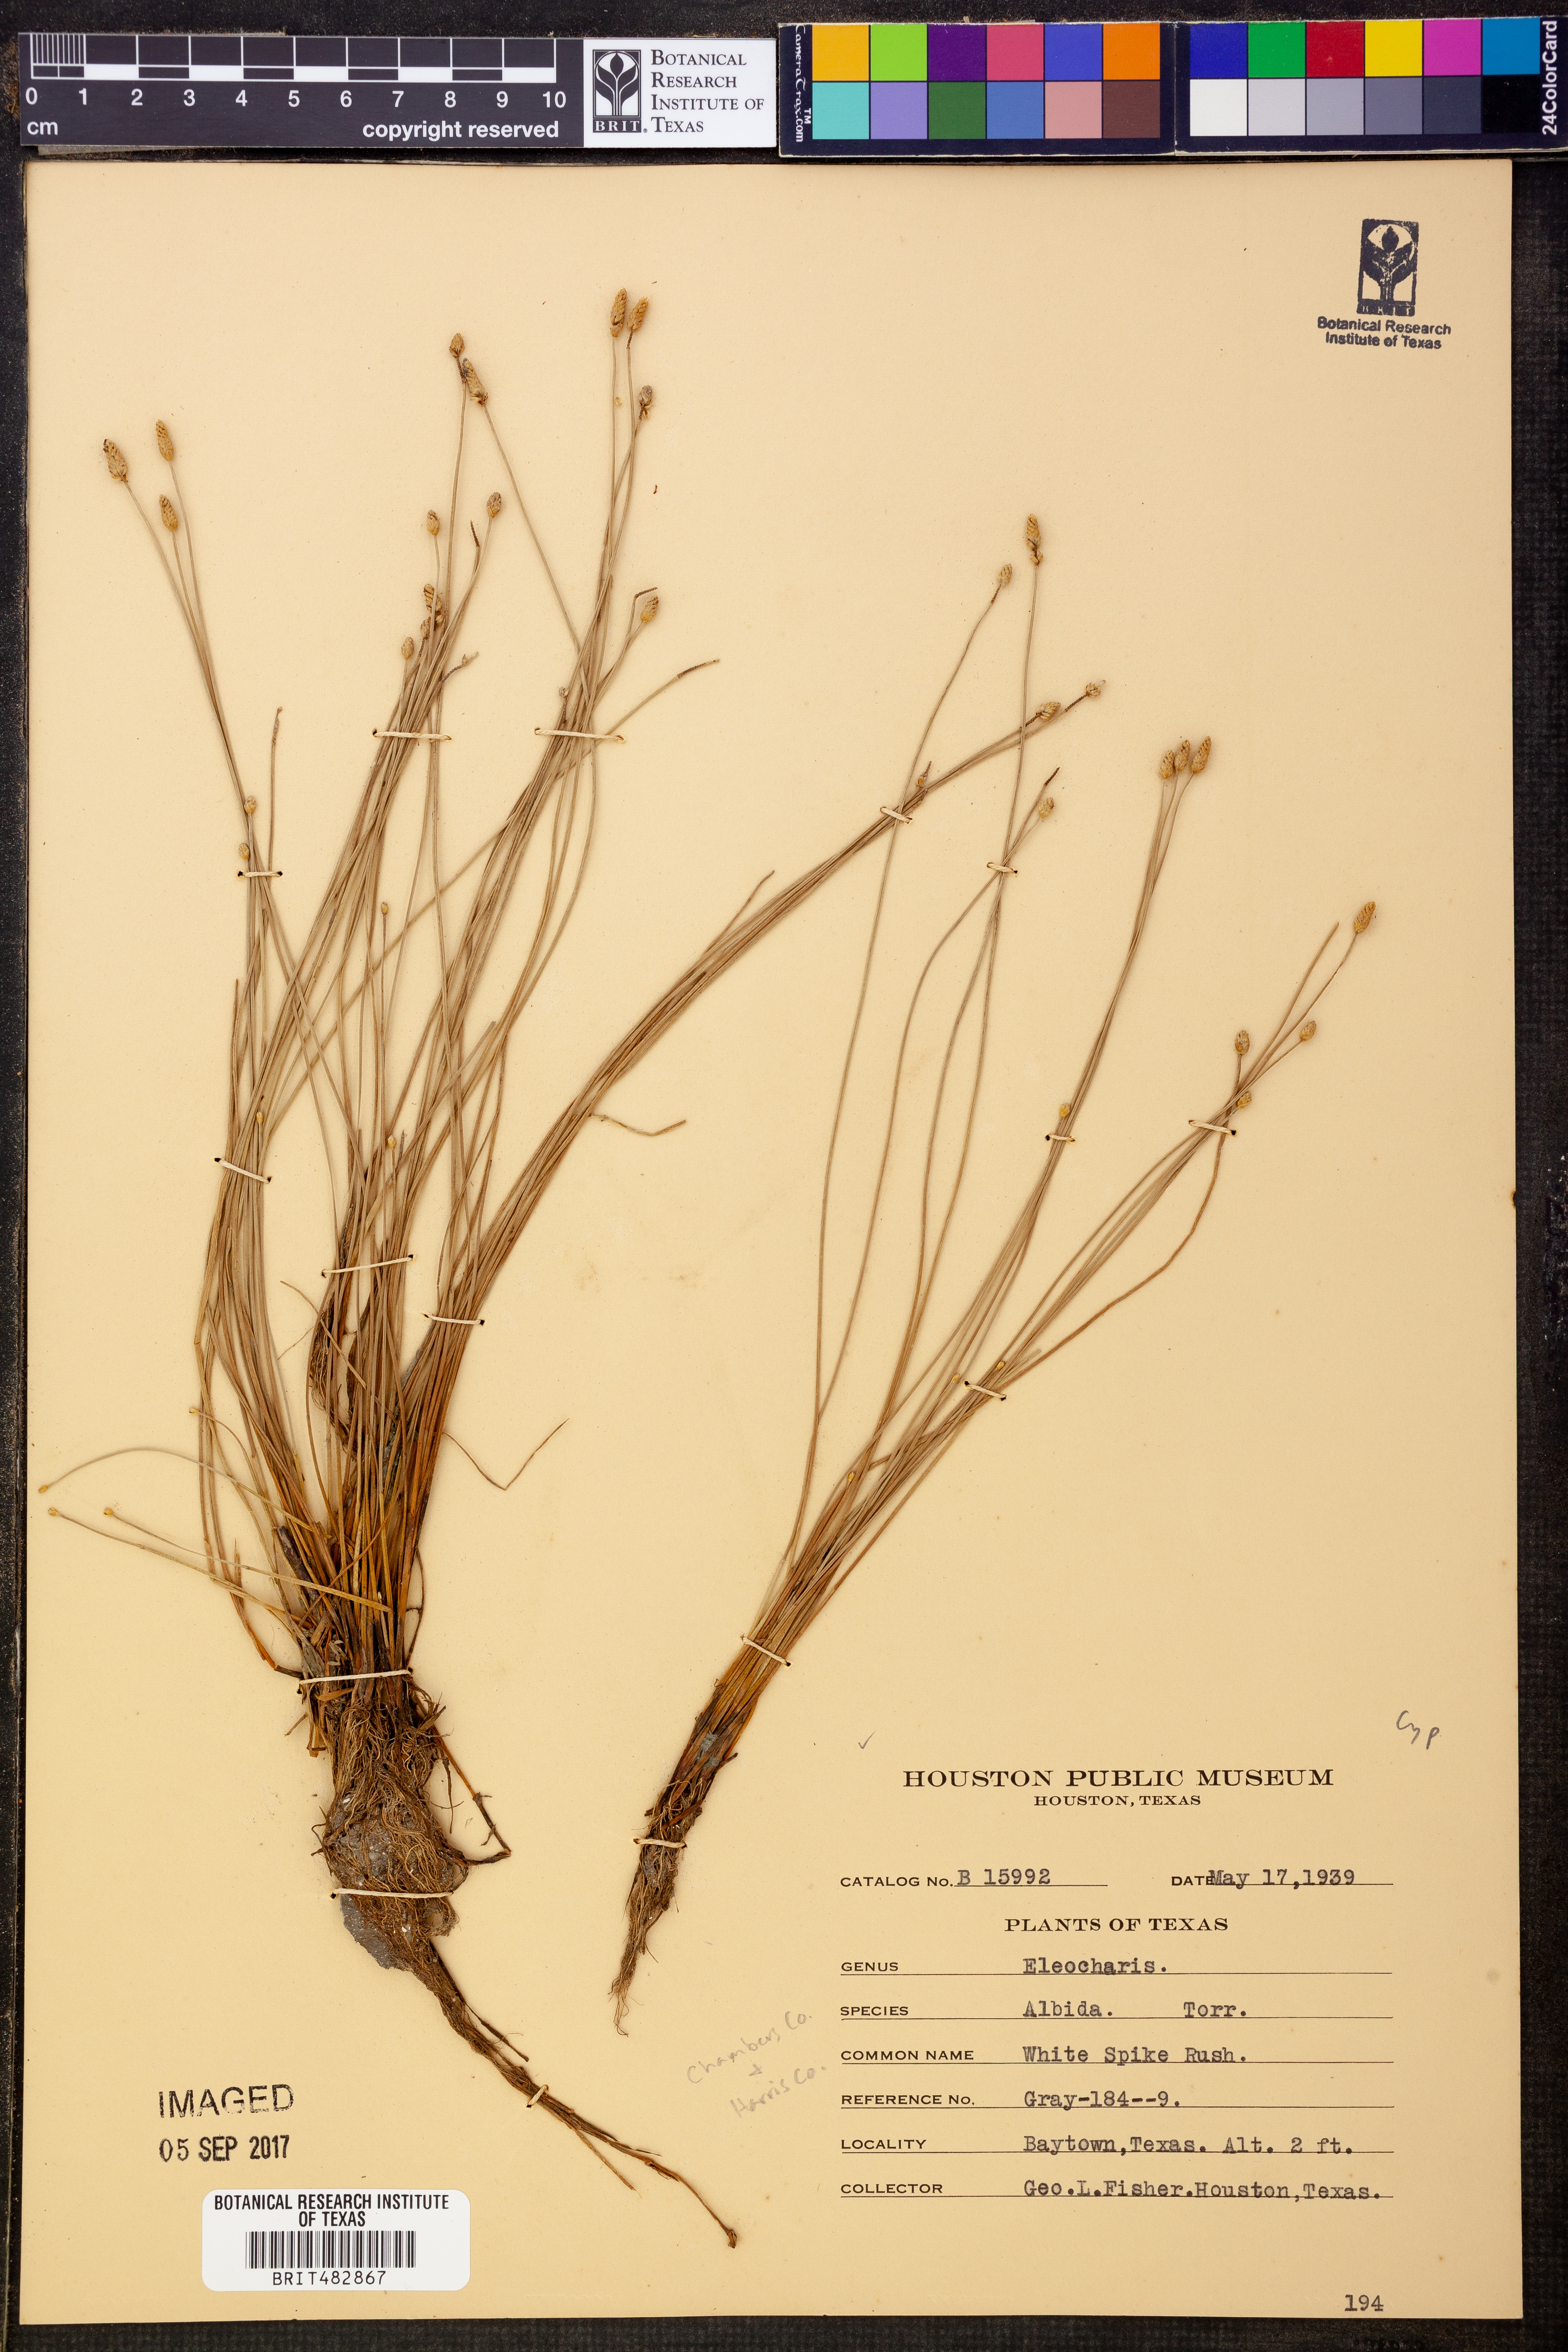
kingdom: Plantae
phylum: Tracheophyta
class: Liliopsida
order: Poales
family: Cyperaceae
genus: Eleocharis
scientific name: Eleocharis albida
